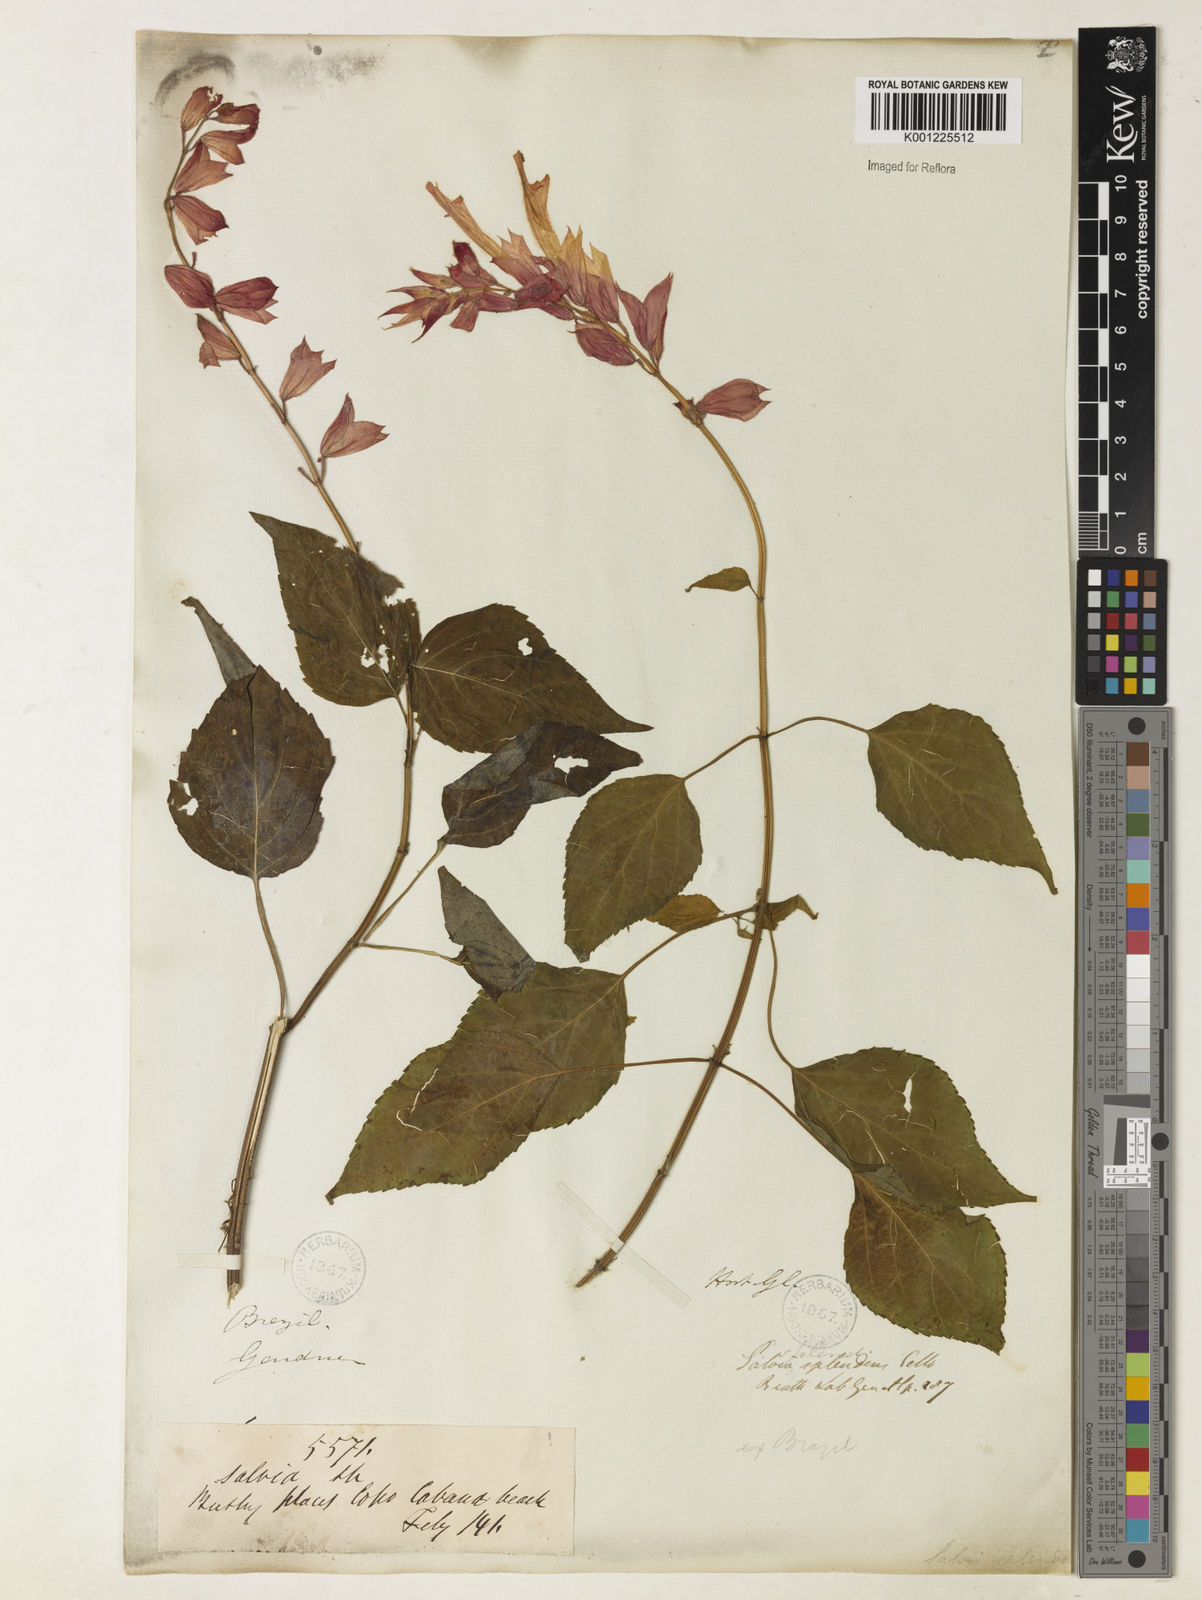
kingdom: Plantae
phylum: Tracheophyta
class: Magnoliopsida
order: Lamiales
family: Lamiaceae
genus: Salvia
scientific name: Salvia
